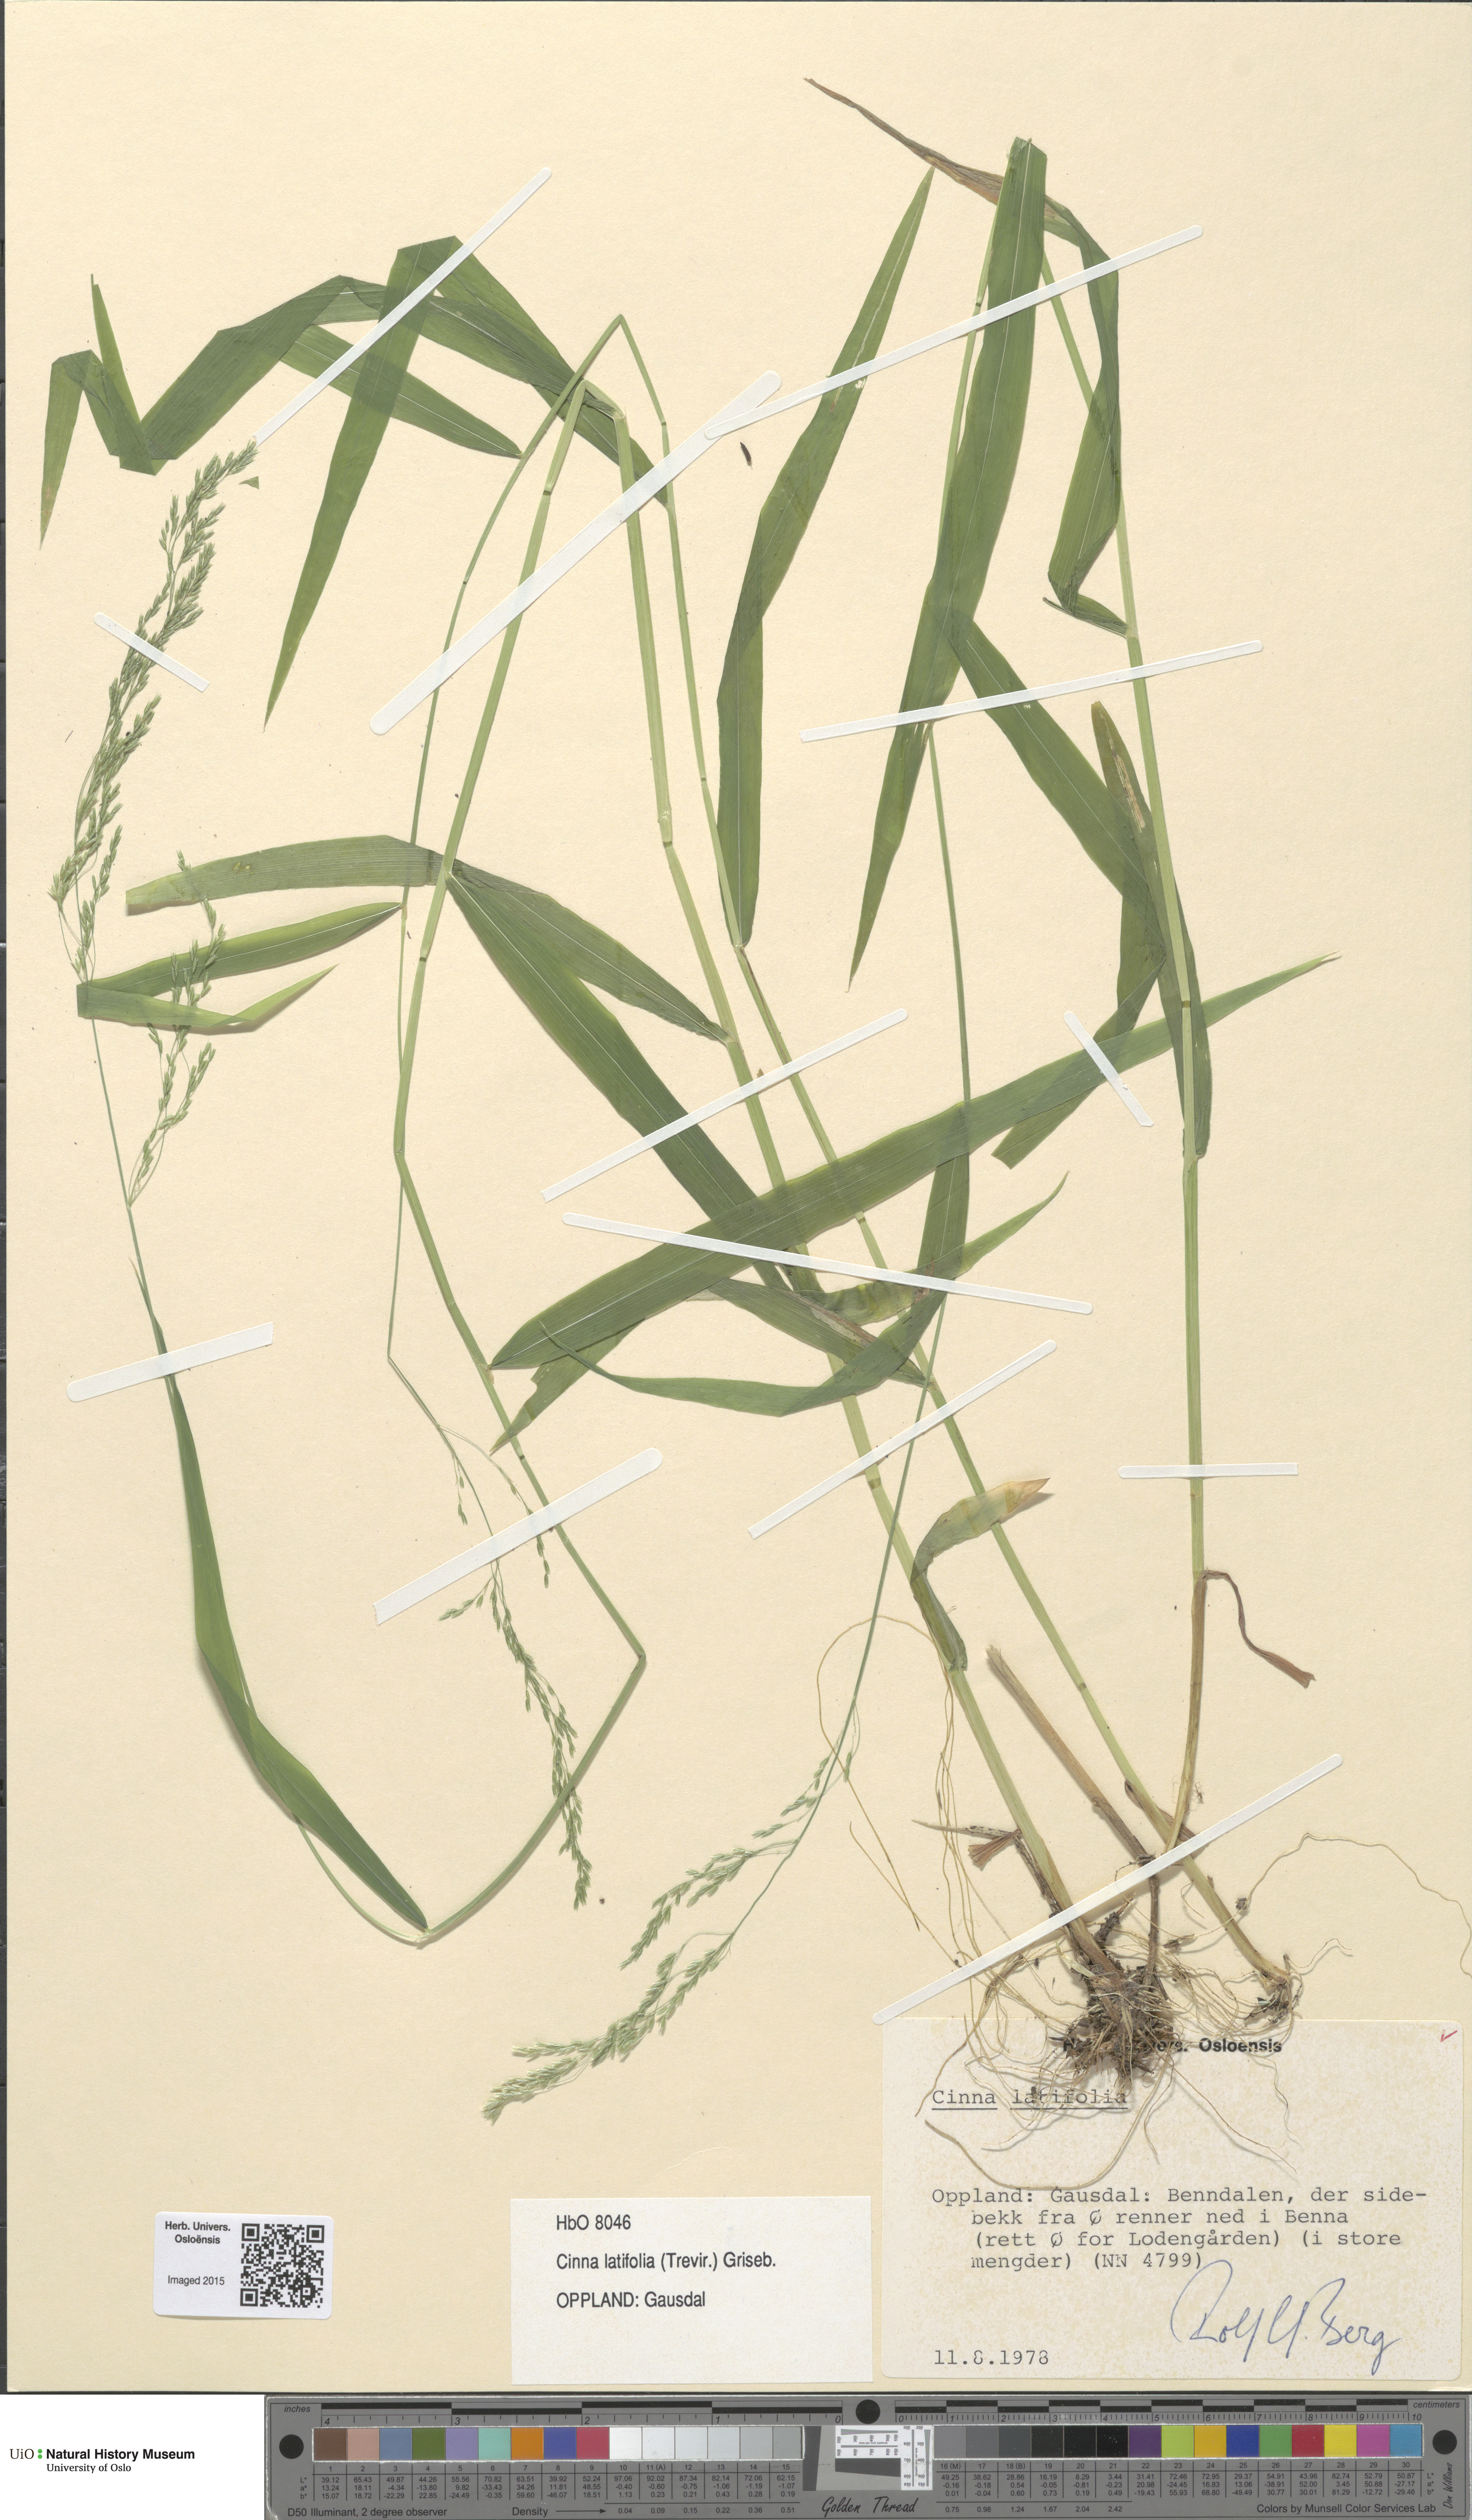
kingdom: Plantae
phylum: Tracheophyta
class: Liliopsida
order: Poales
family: Poaceae
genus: Cinna
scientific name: Cinna latifolia
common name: Drooping woodreed
